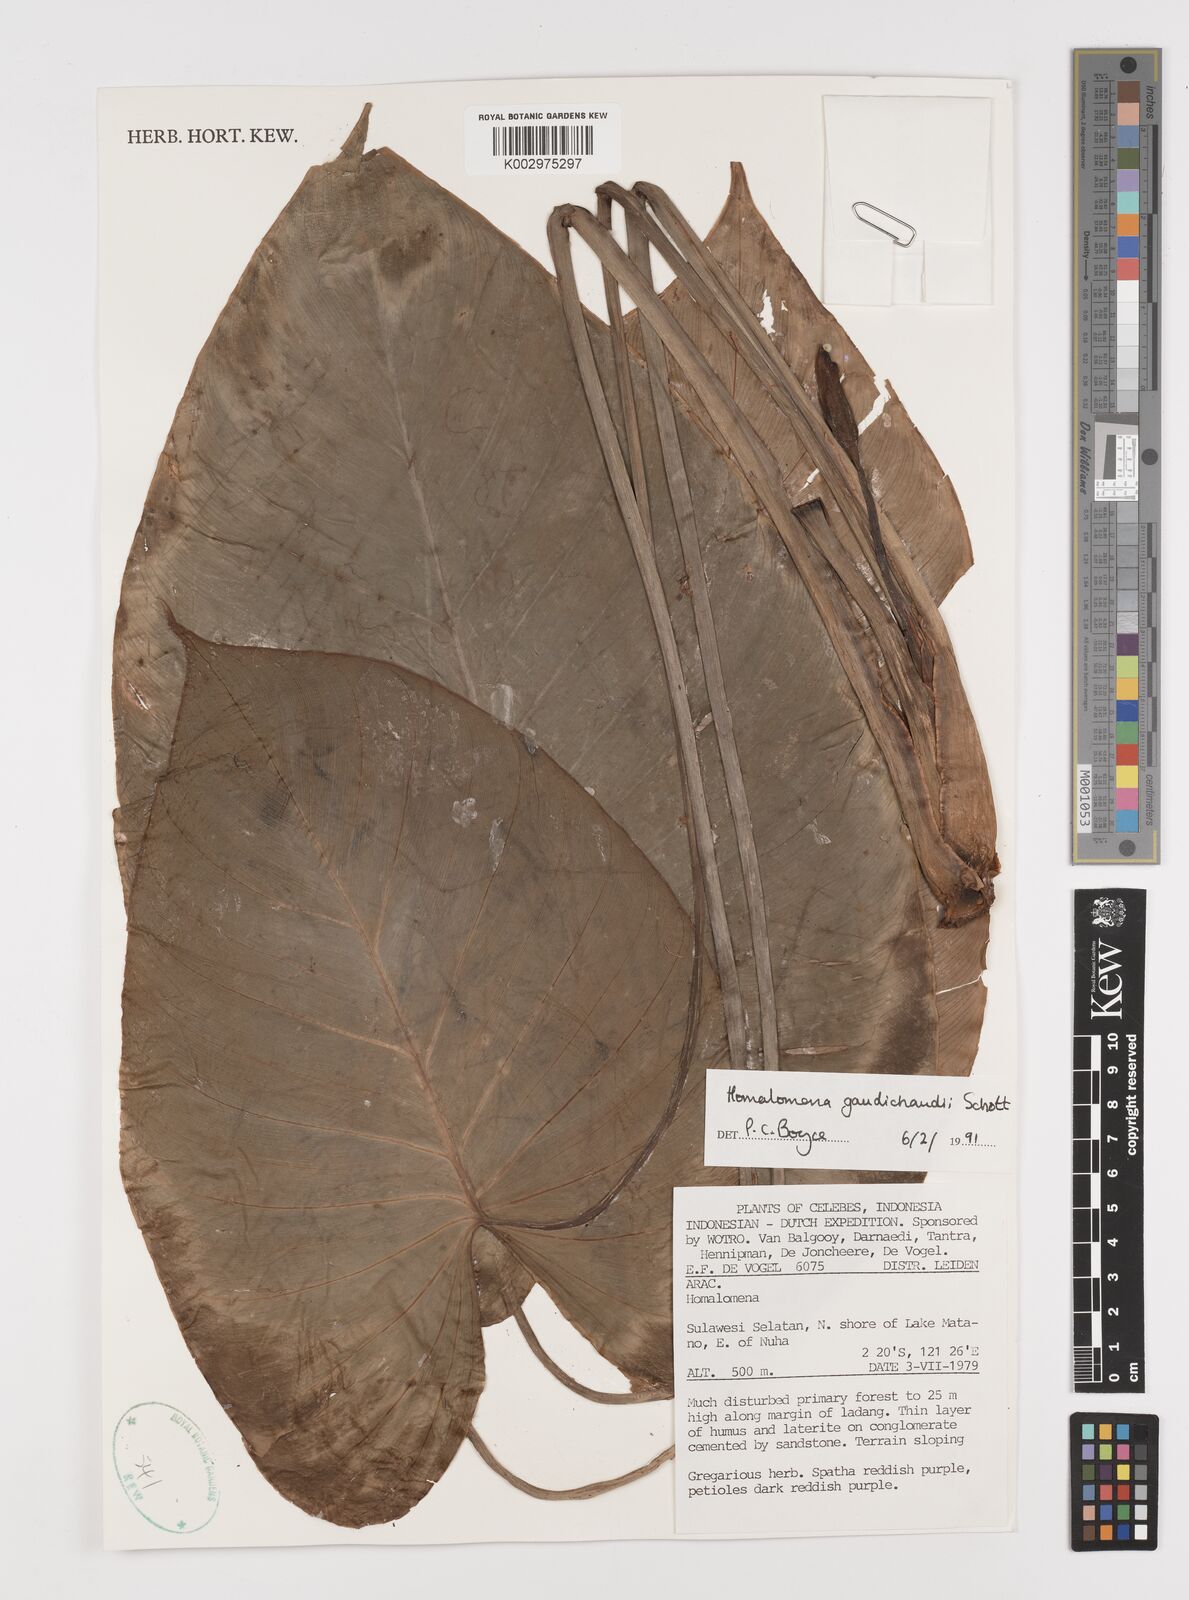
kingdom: Plantae
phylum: Tracheophyta
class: Liliopsida
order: Alismatales
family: Araceae
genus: Homalomena
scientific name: Homalomena gaudichaudii
